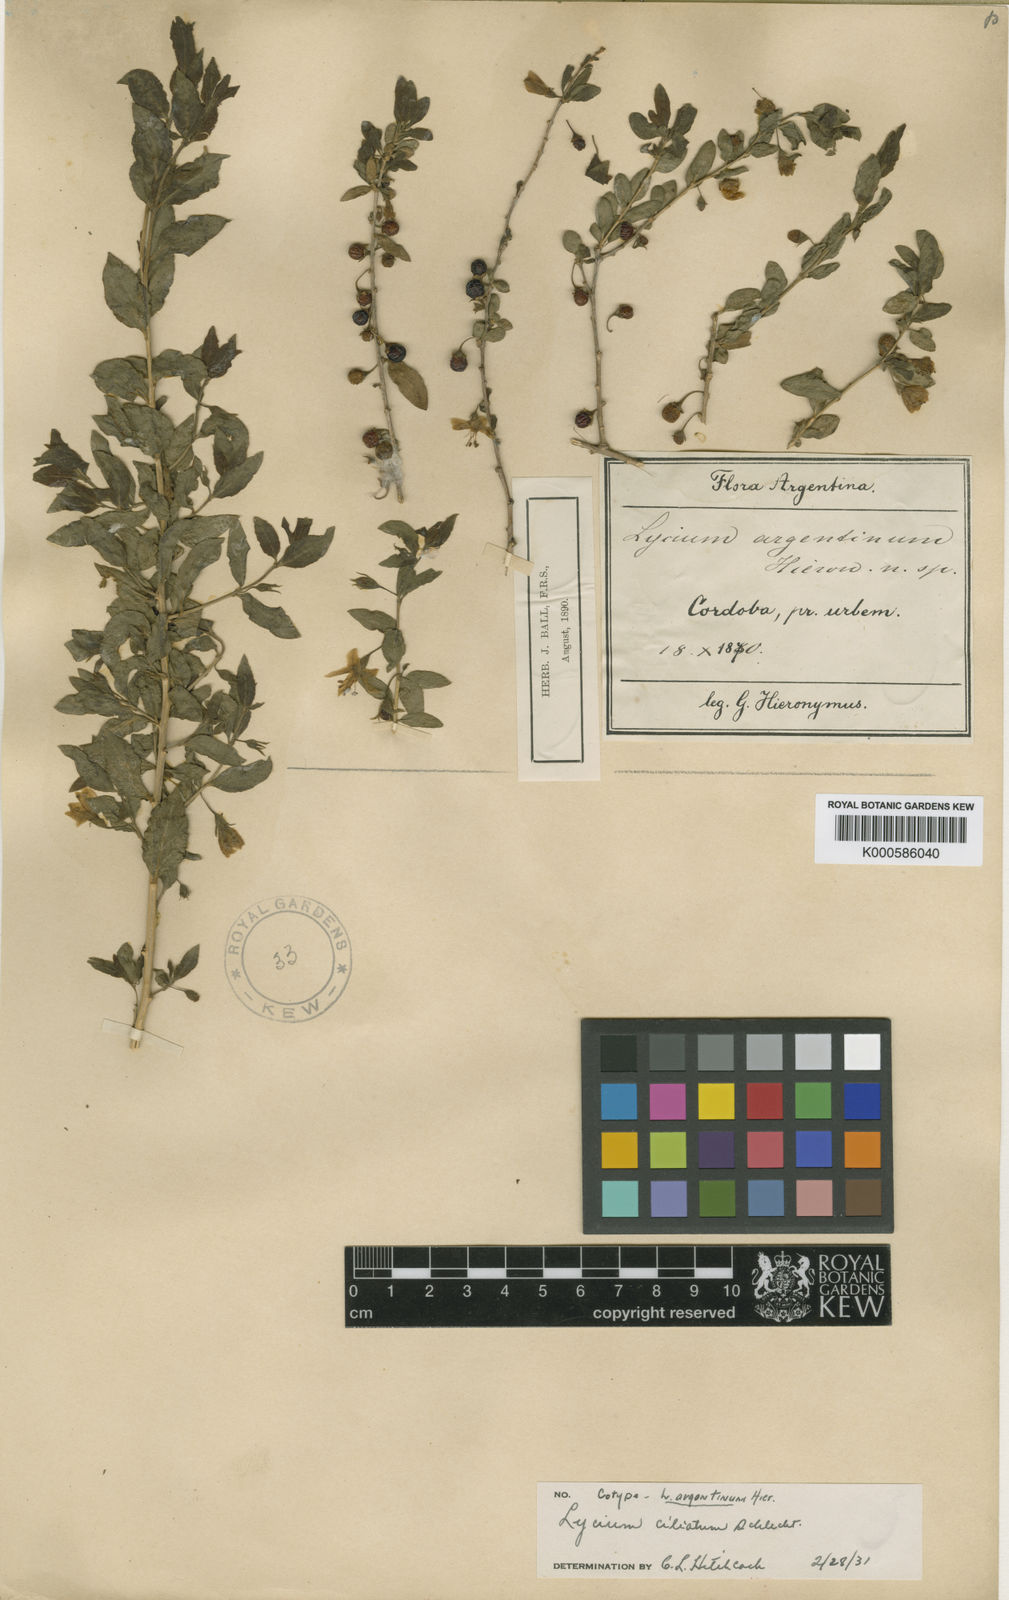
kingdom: Plantae
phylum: Tracheophyta
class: Magnoliopsida
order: Solanales
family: Solanaceae
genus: Lycium
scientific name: Lycium ciliatum
